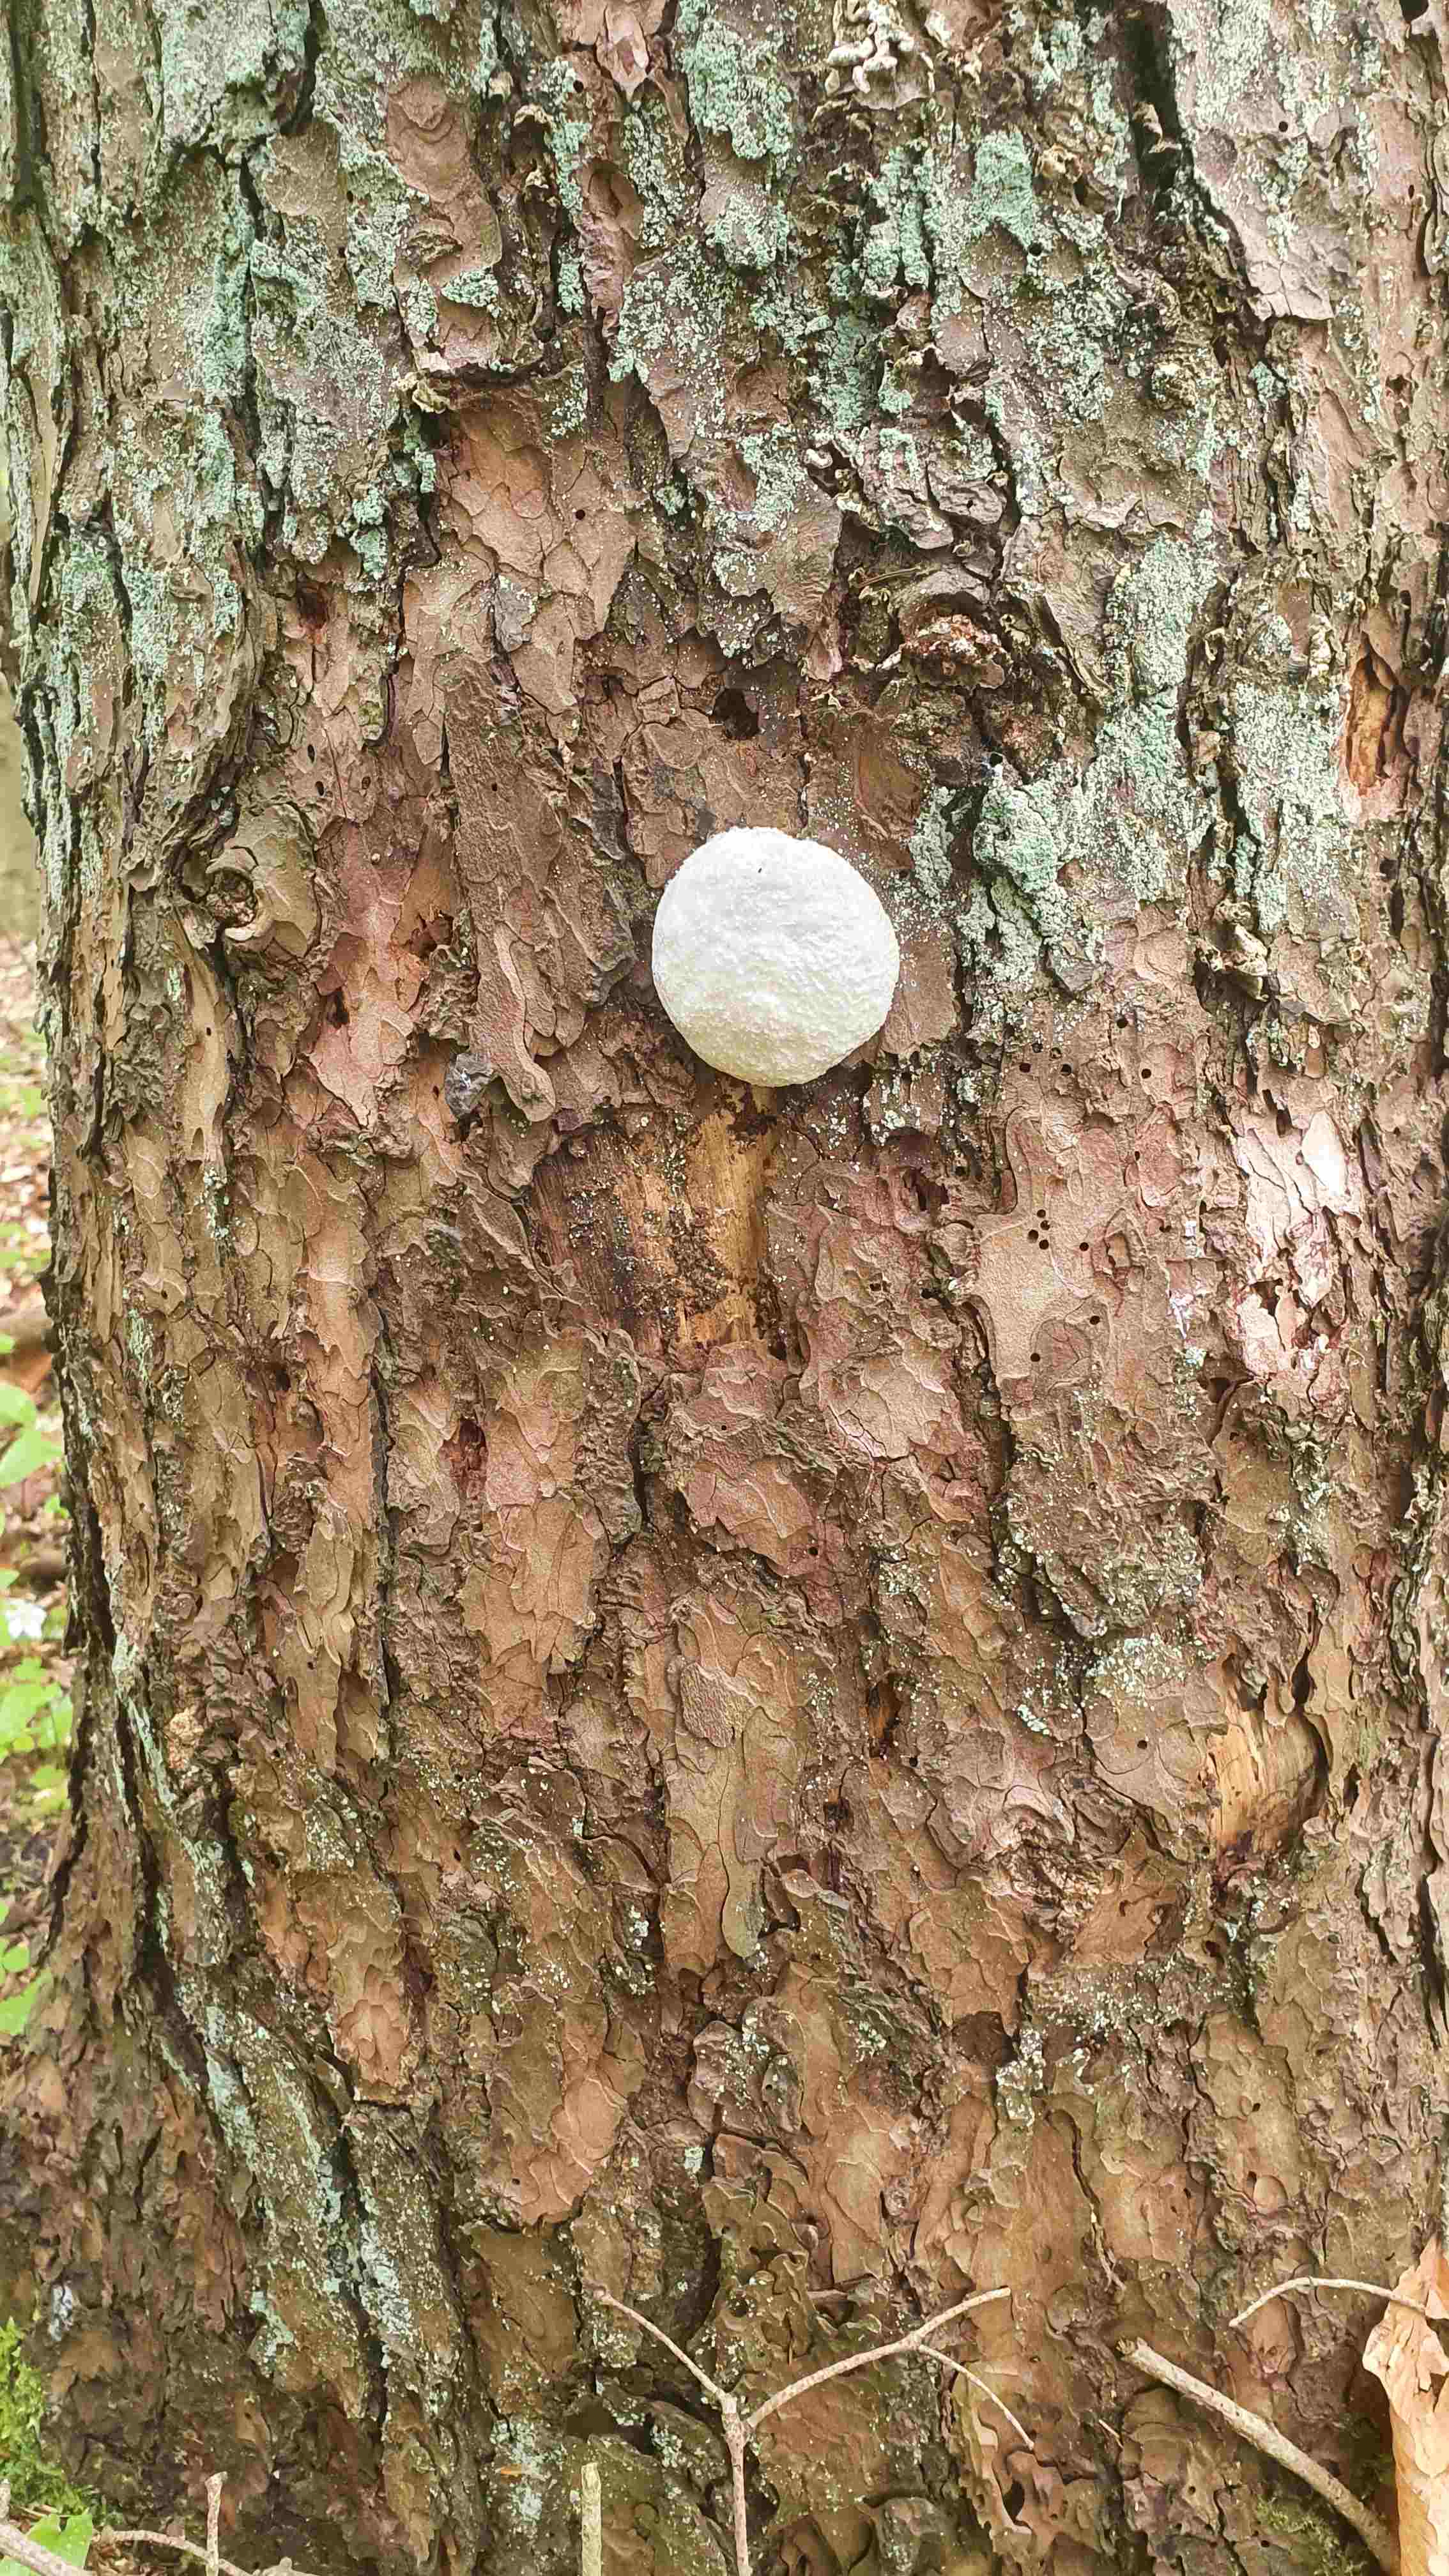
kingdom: Protozoa
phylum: Mycetozoa
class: Myxomycetes
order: Cribrariales
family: Tubiferaceae
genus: Reticularia
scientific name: Reticularia lycoperdon
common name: skinnende støvpude
